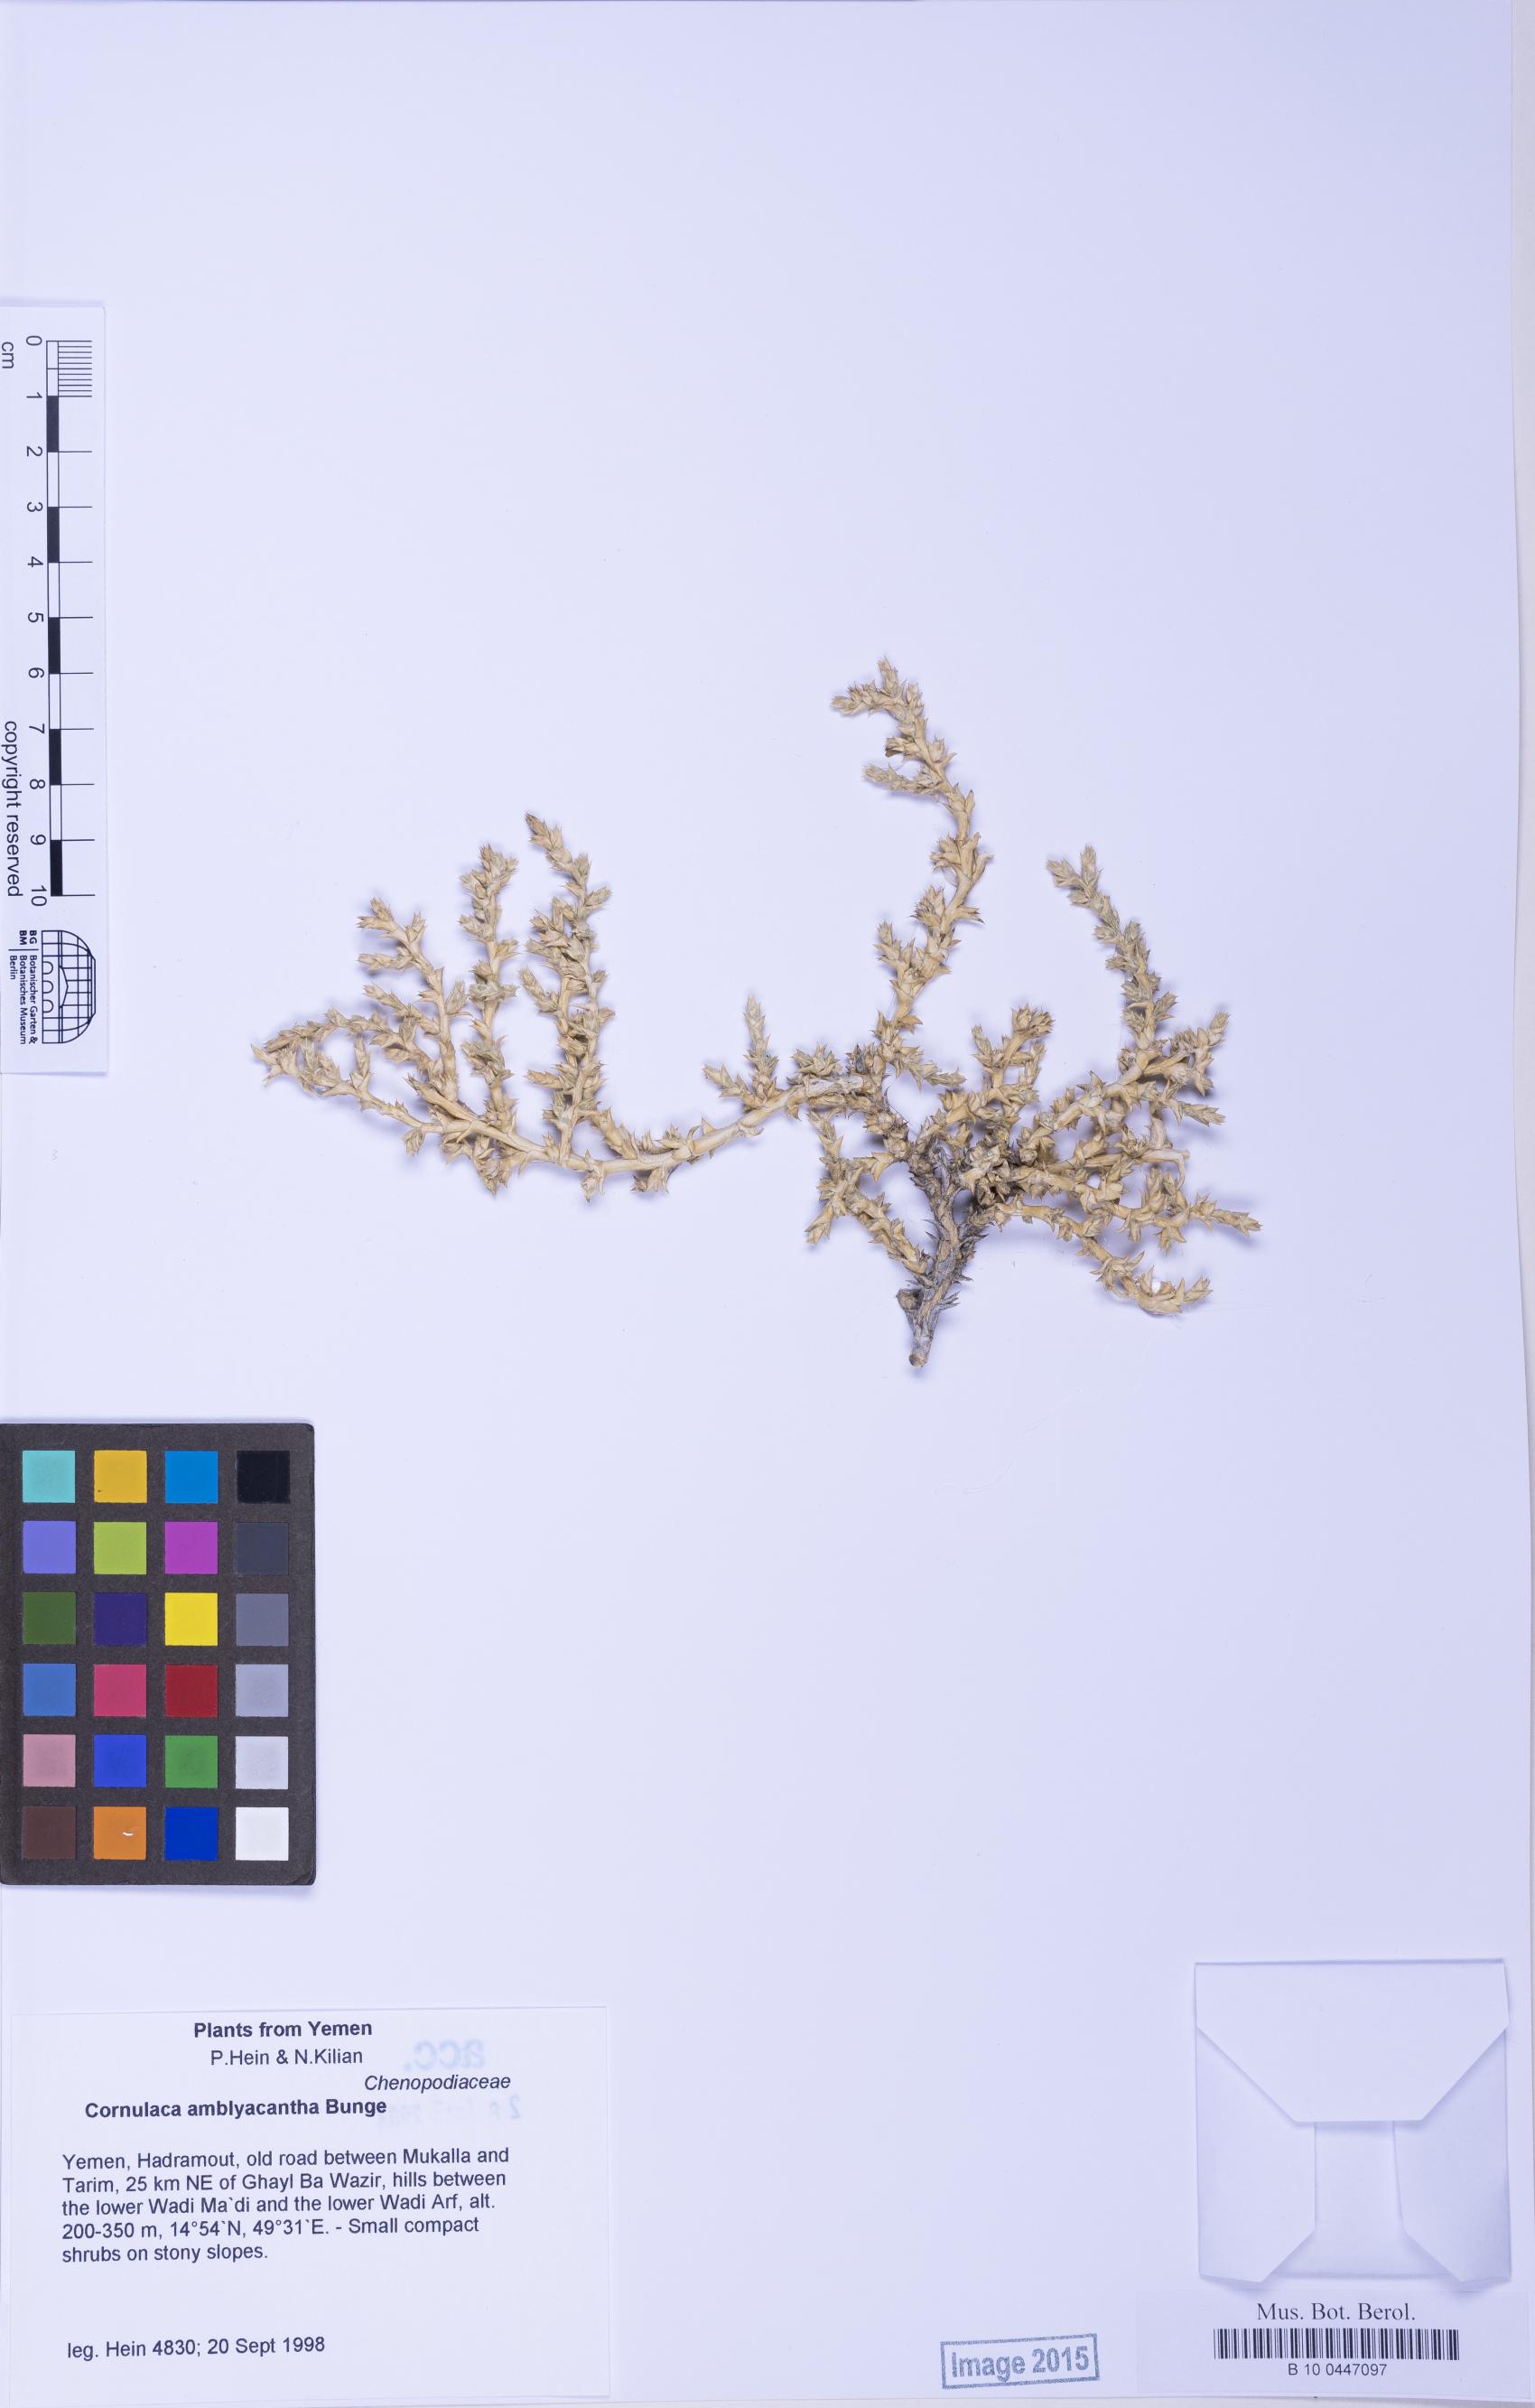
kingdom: Plantae
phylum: Tracheophyta
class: Magnoliopsida
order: Caryophyllales
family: Amaranthaceae
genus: Cornulaca
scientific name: Cornulaca monacantha
